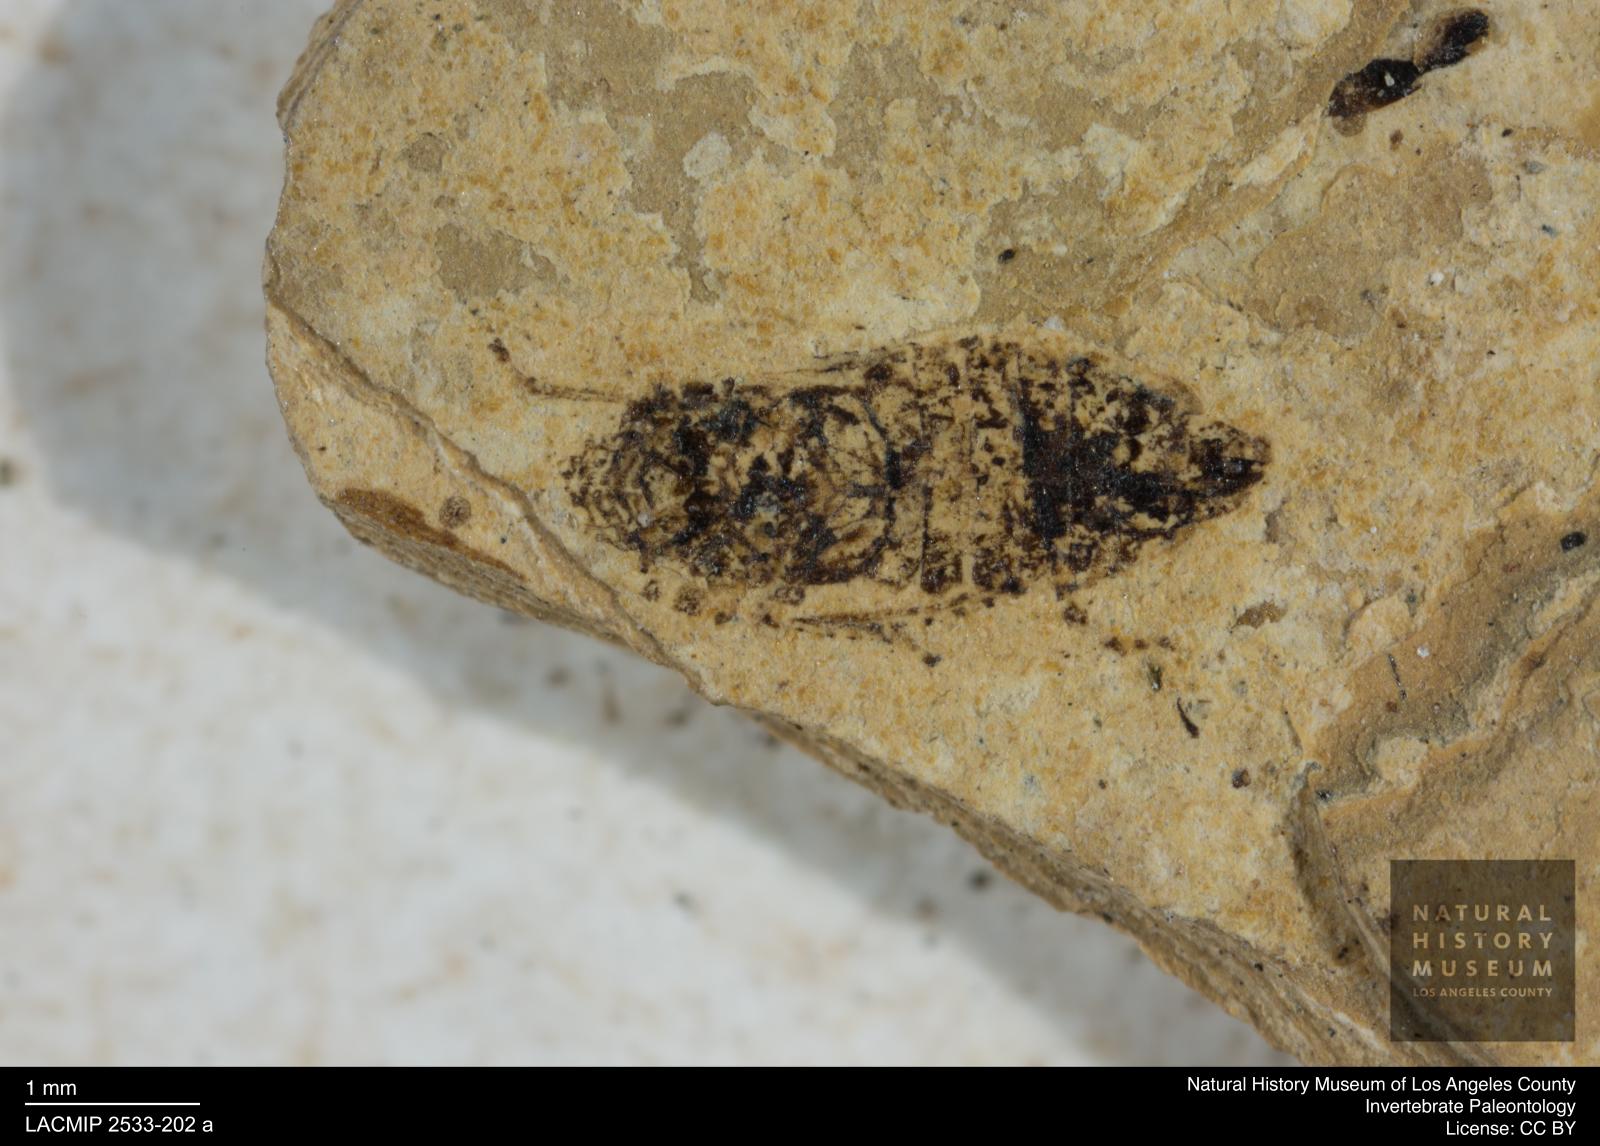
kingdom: Animalia
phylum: Arthropoda
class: Insecta
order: Hemiptera
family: Cicadellidae
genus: Thamnotettix
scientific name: Thamnotettix gracilentus
